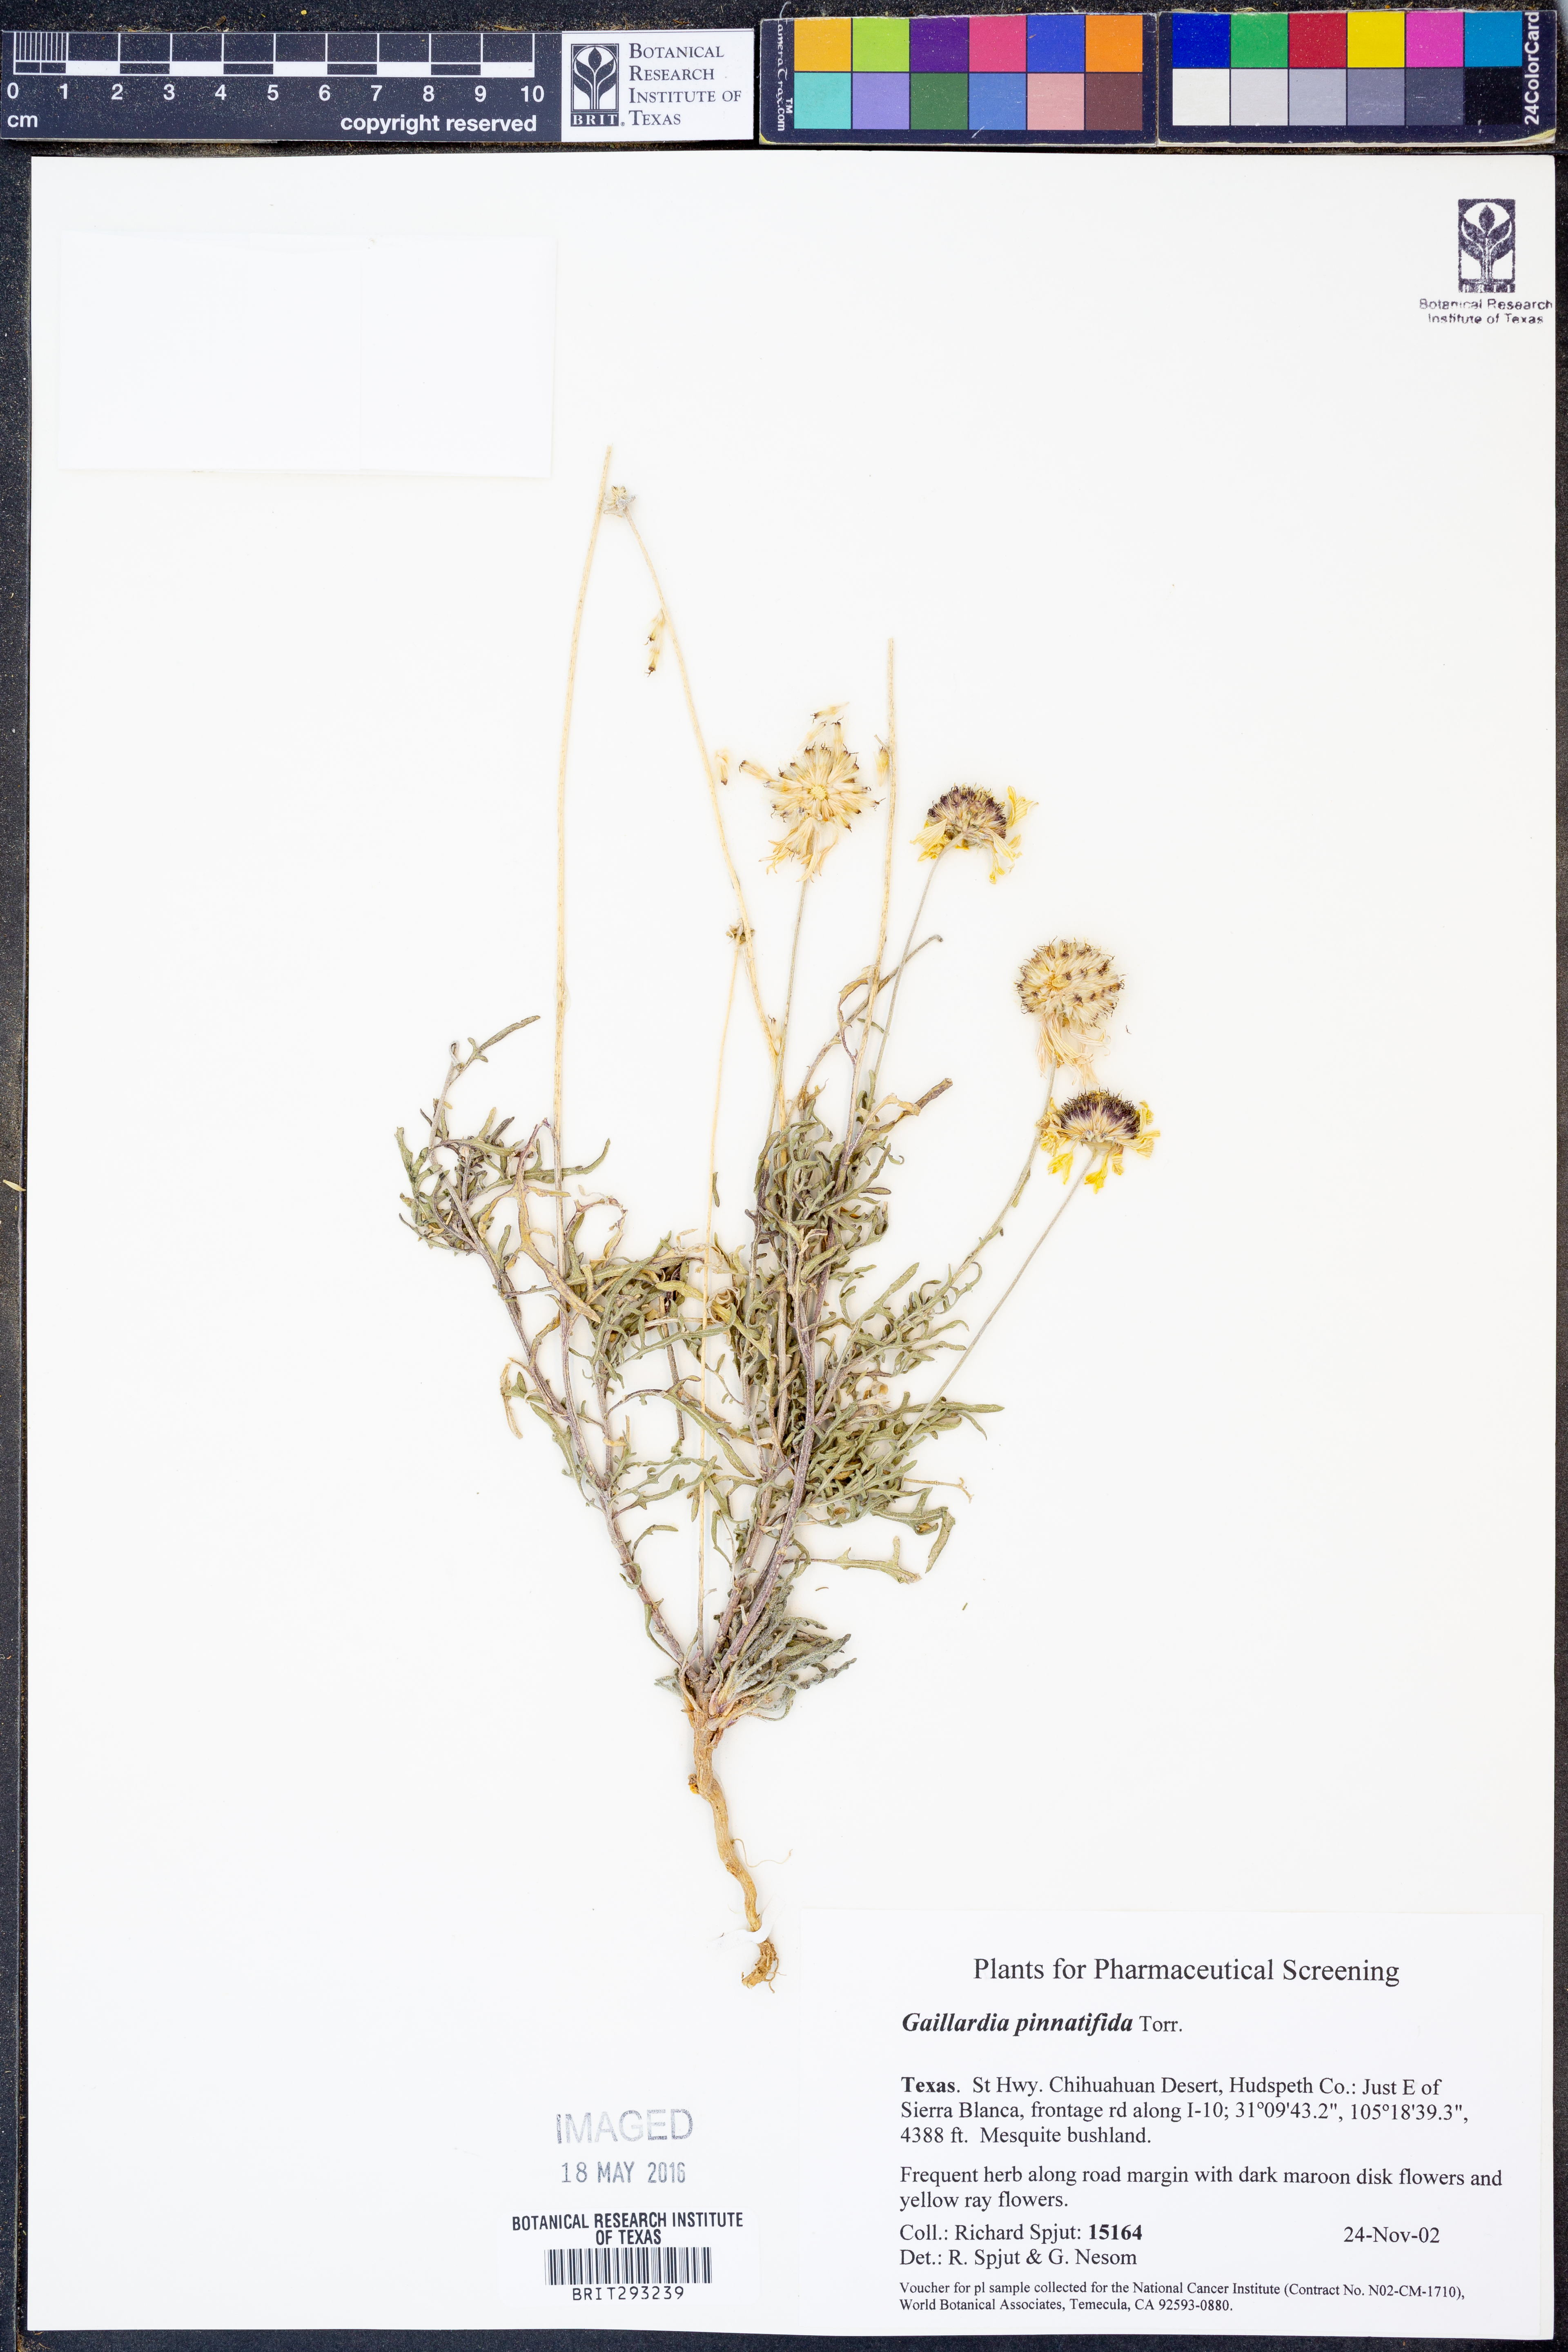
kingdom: Plantae
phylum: Tracheophyta
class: Magnoliopsida
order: Asterales
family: Asteraceae
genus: Gaillardia
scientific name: Gaillardia pinnatifida
